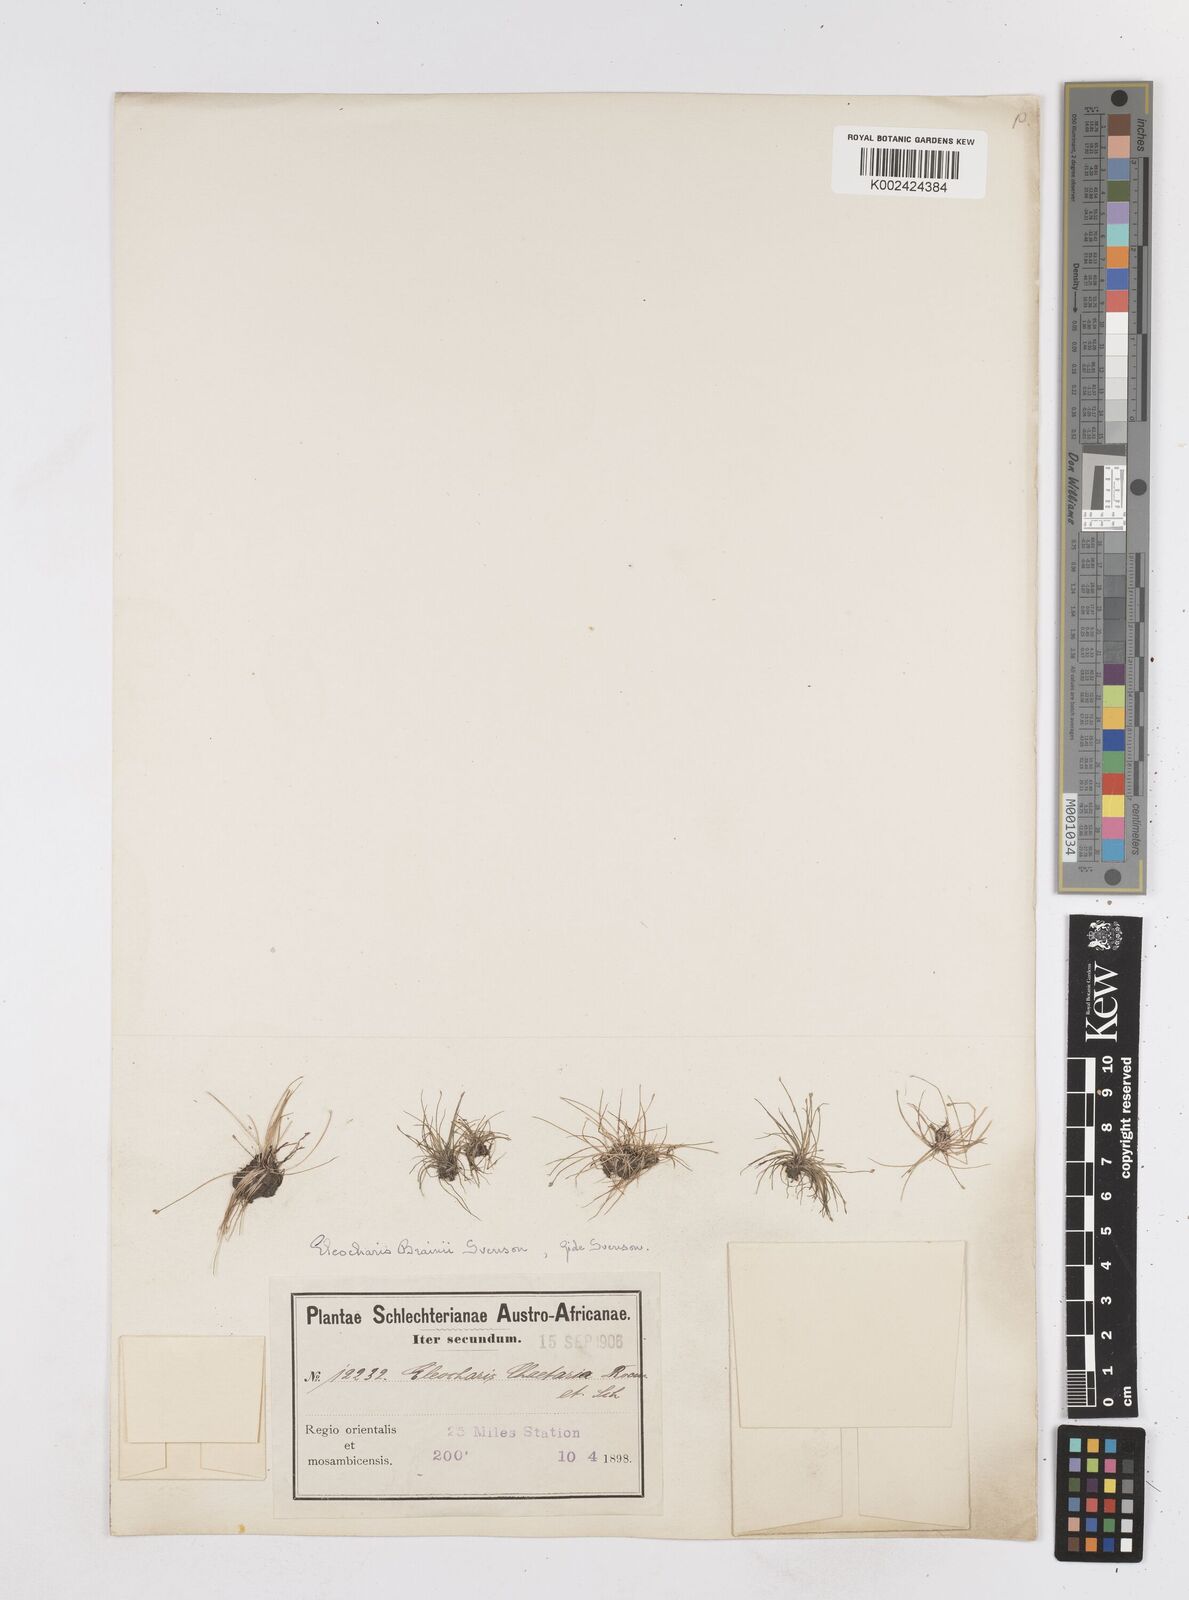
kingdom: Plantae
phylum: Tracheophyta
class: Liliopsida
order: Poales
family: Cyperaceae
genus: Eleocharis
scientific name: Eleocharis brainii
